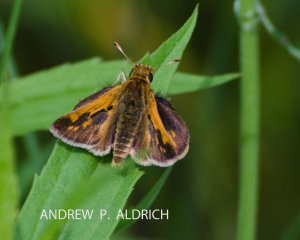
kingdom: Animalia
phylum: Arthropoda
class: Insecta
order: Lepidoptera
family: Hesperiidae
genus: Polites
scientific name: Polites coras
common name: Peck's Skipper
